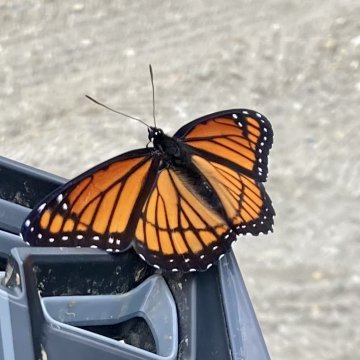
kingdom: Animalia
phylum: Arthropoda
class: Insecta
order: Lepidoptera
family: Nymphalidae
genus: Limenitis
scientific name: Limenitis archippus
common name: Viceroy
